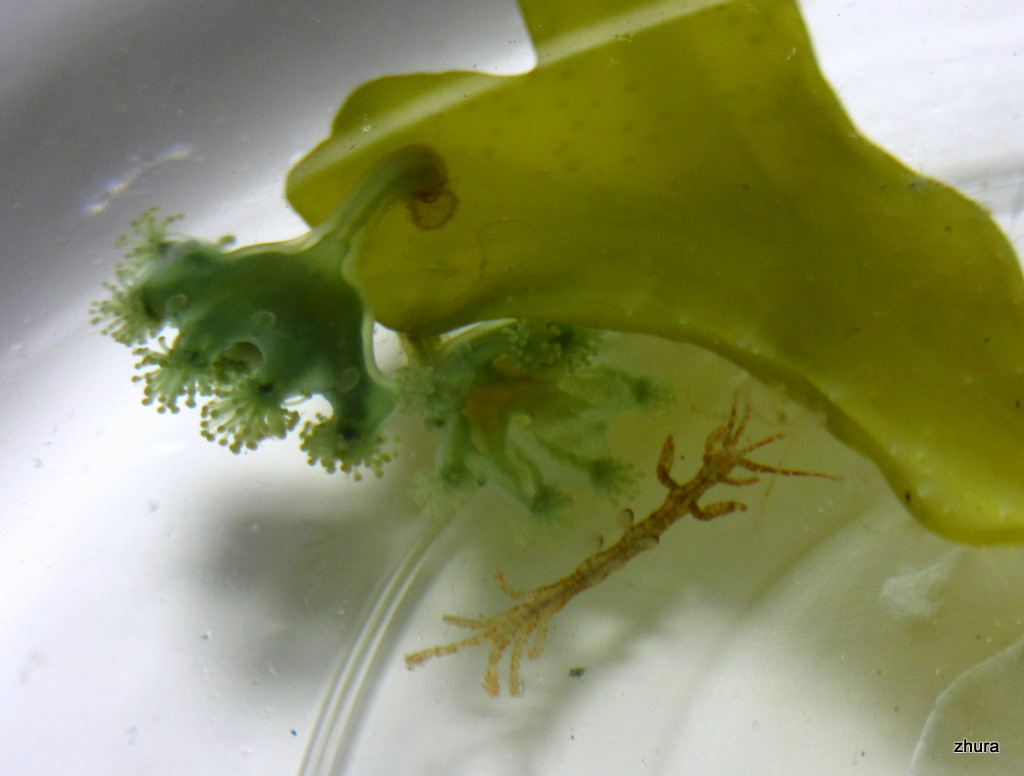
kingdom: Animalia
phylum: Cnidaria
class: Staurozoa
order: Stauromedusae
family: Haliclystidae
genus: Haliclystus
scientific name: Haliclystus auricula
